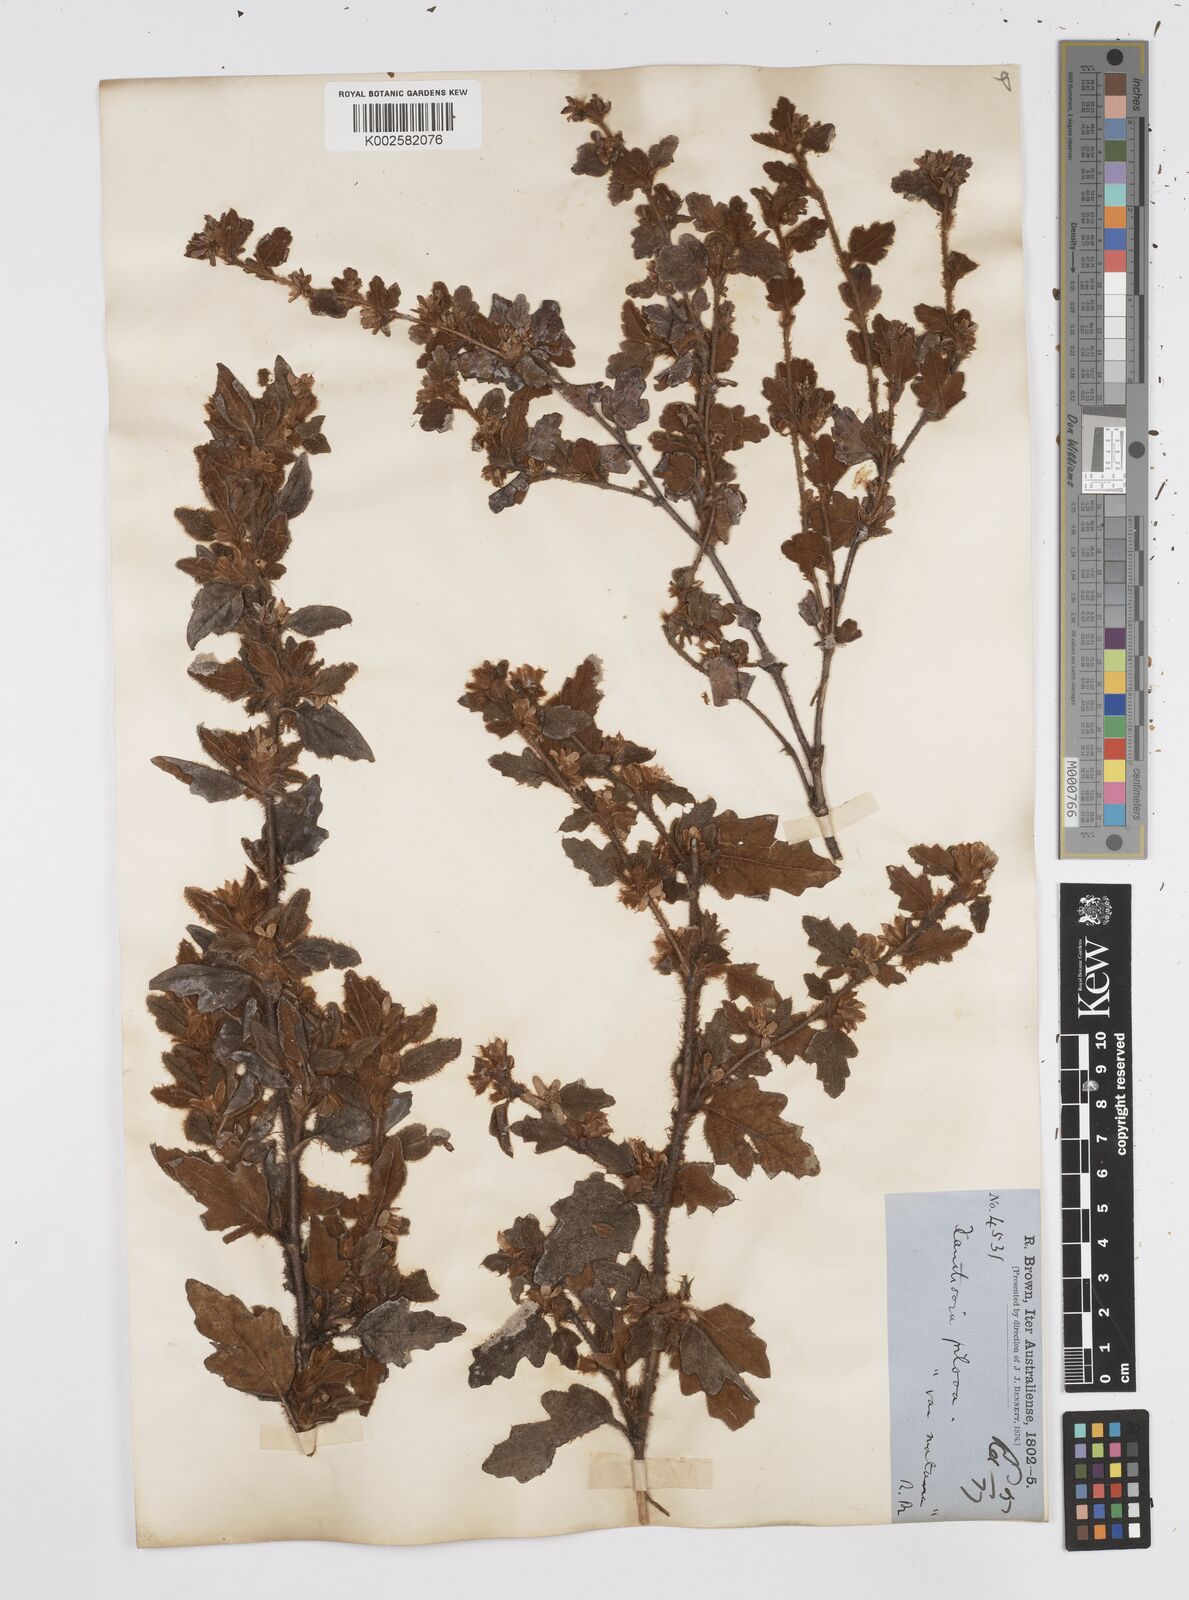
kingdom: Plantae
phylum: Tracheophyta
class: Magnoliopsida
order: Apiales
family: Apiaceae
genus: Xanthosia
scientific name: Xanthosia pilosa
